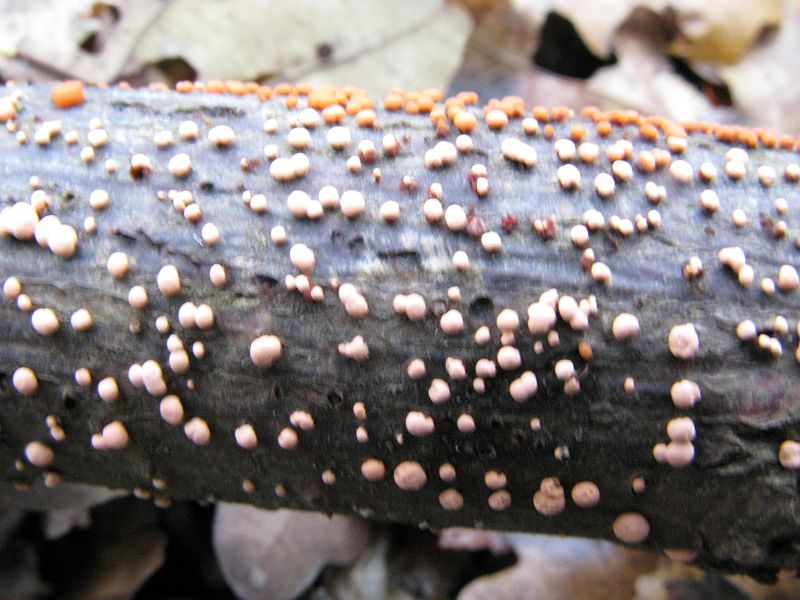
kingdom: Fungi
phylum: Ascomycota
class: Sordariomycetes
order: Hypocreales
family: Nectriaceae
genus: Nectria
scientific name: Nectria cinnabarina
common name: almindelig cinnobersvamp
